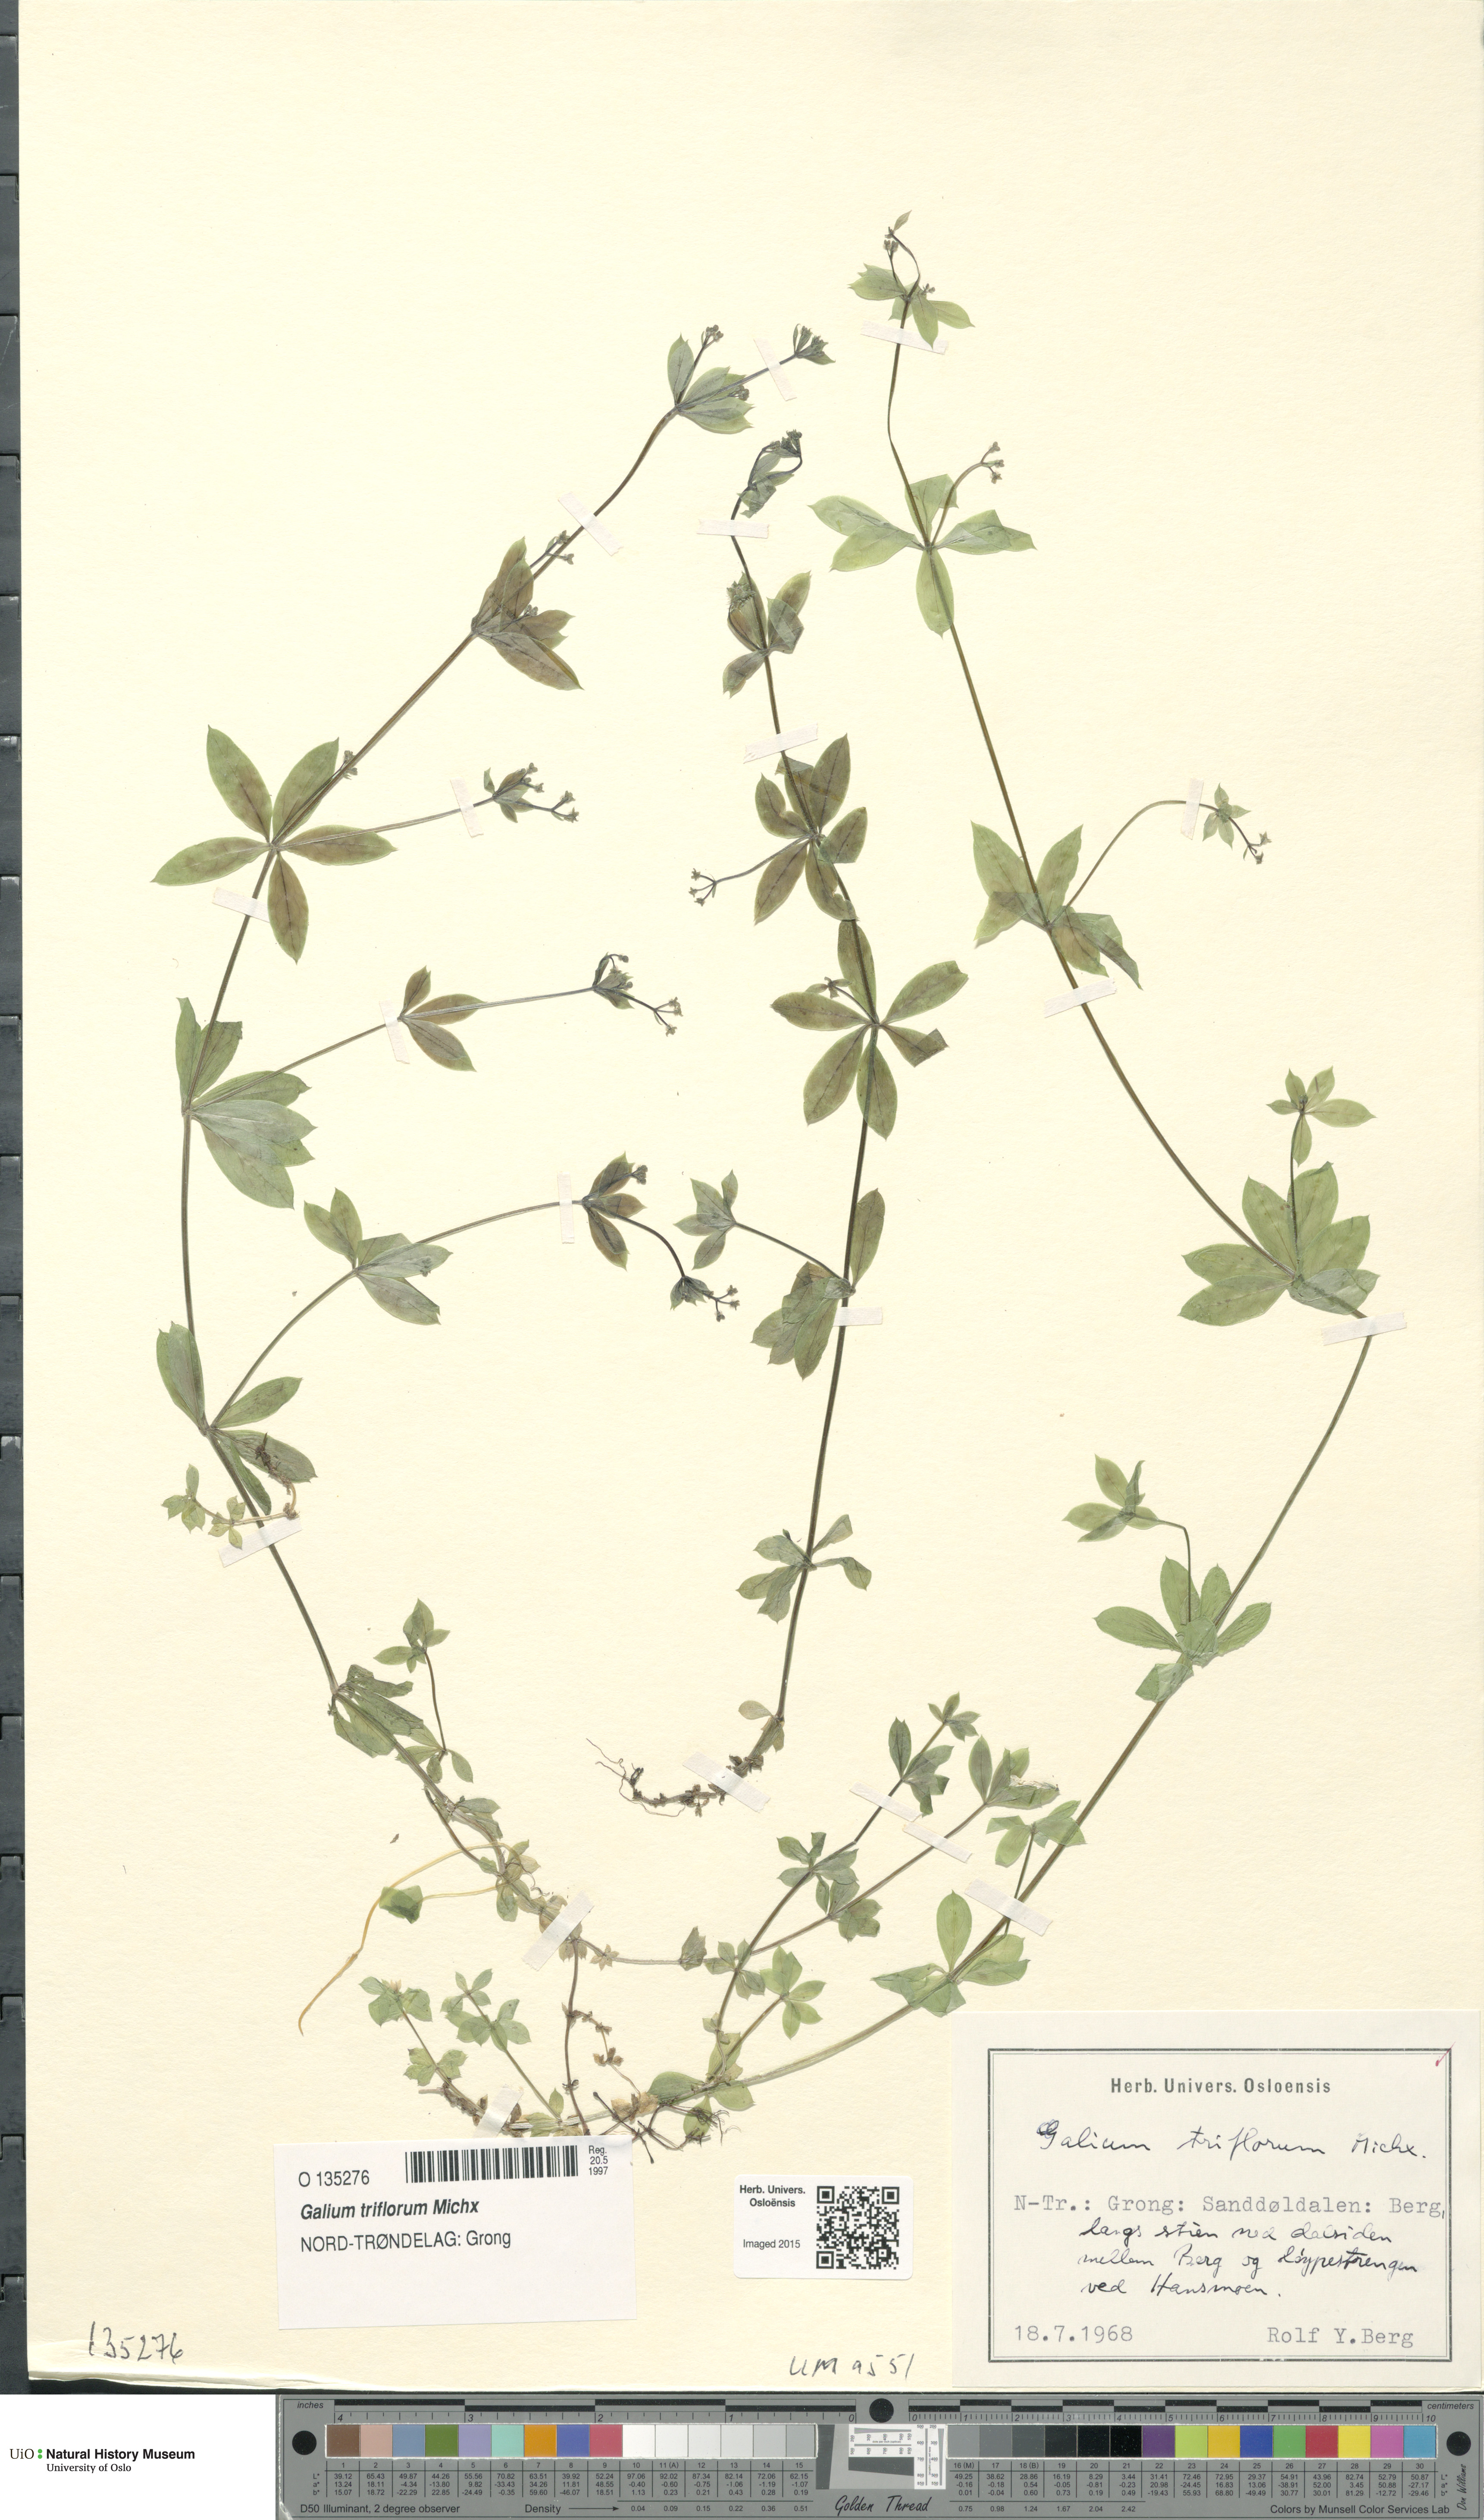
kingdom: Plantae
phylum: Tracheophyta
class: Magnoliopsida
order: Gentianales
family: Rubiaceae
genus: Galium
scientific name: Galium triflorum
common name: Fragrant bedstraw
